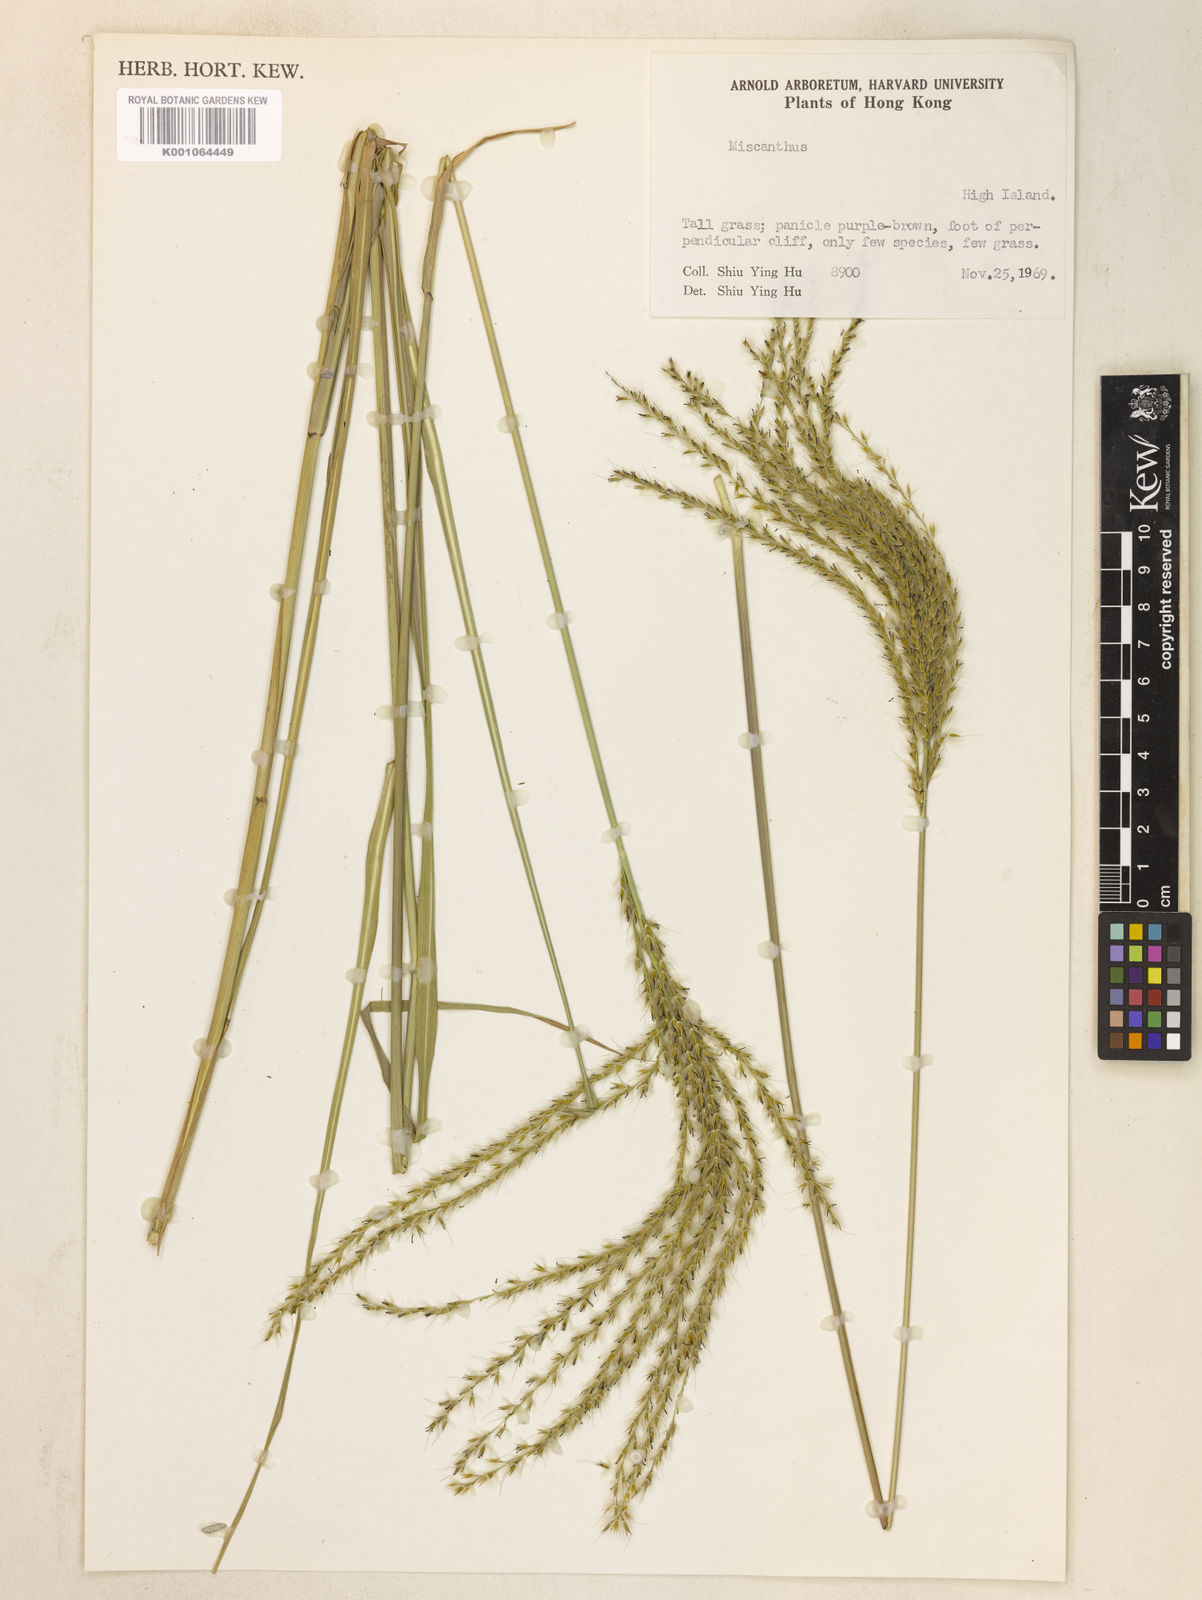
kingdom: Plantae
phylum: Tracheophyta
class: Liliopsida
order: Poales
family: Poaceae
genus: Miscanthus
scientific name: Miscanthus sinensis
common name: Chinese silvergrass
